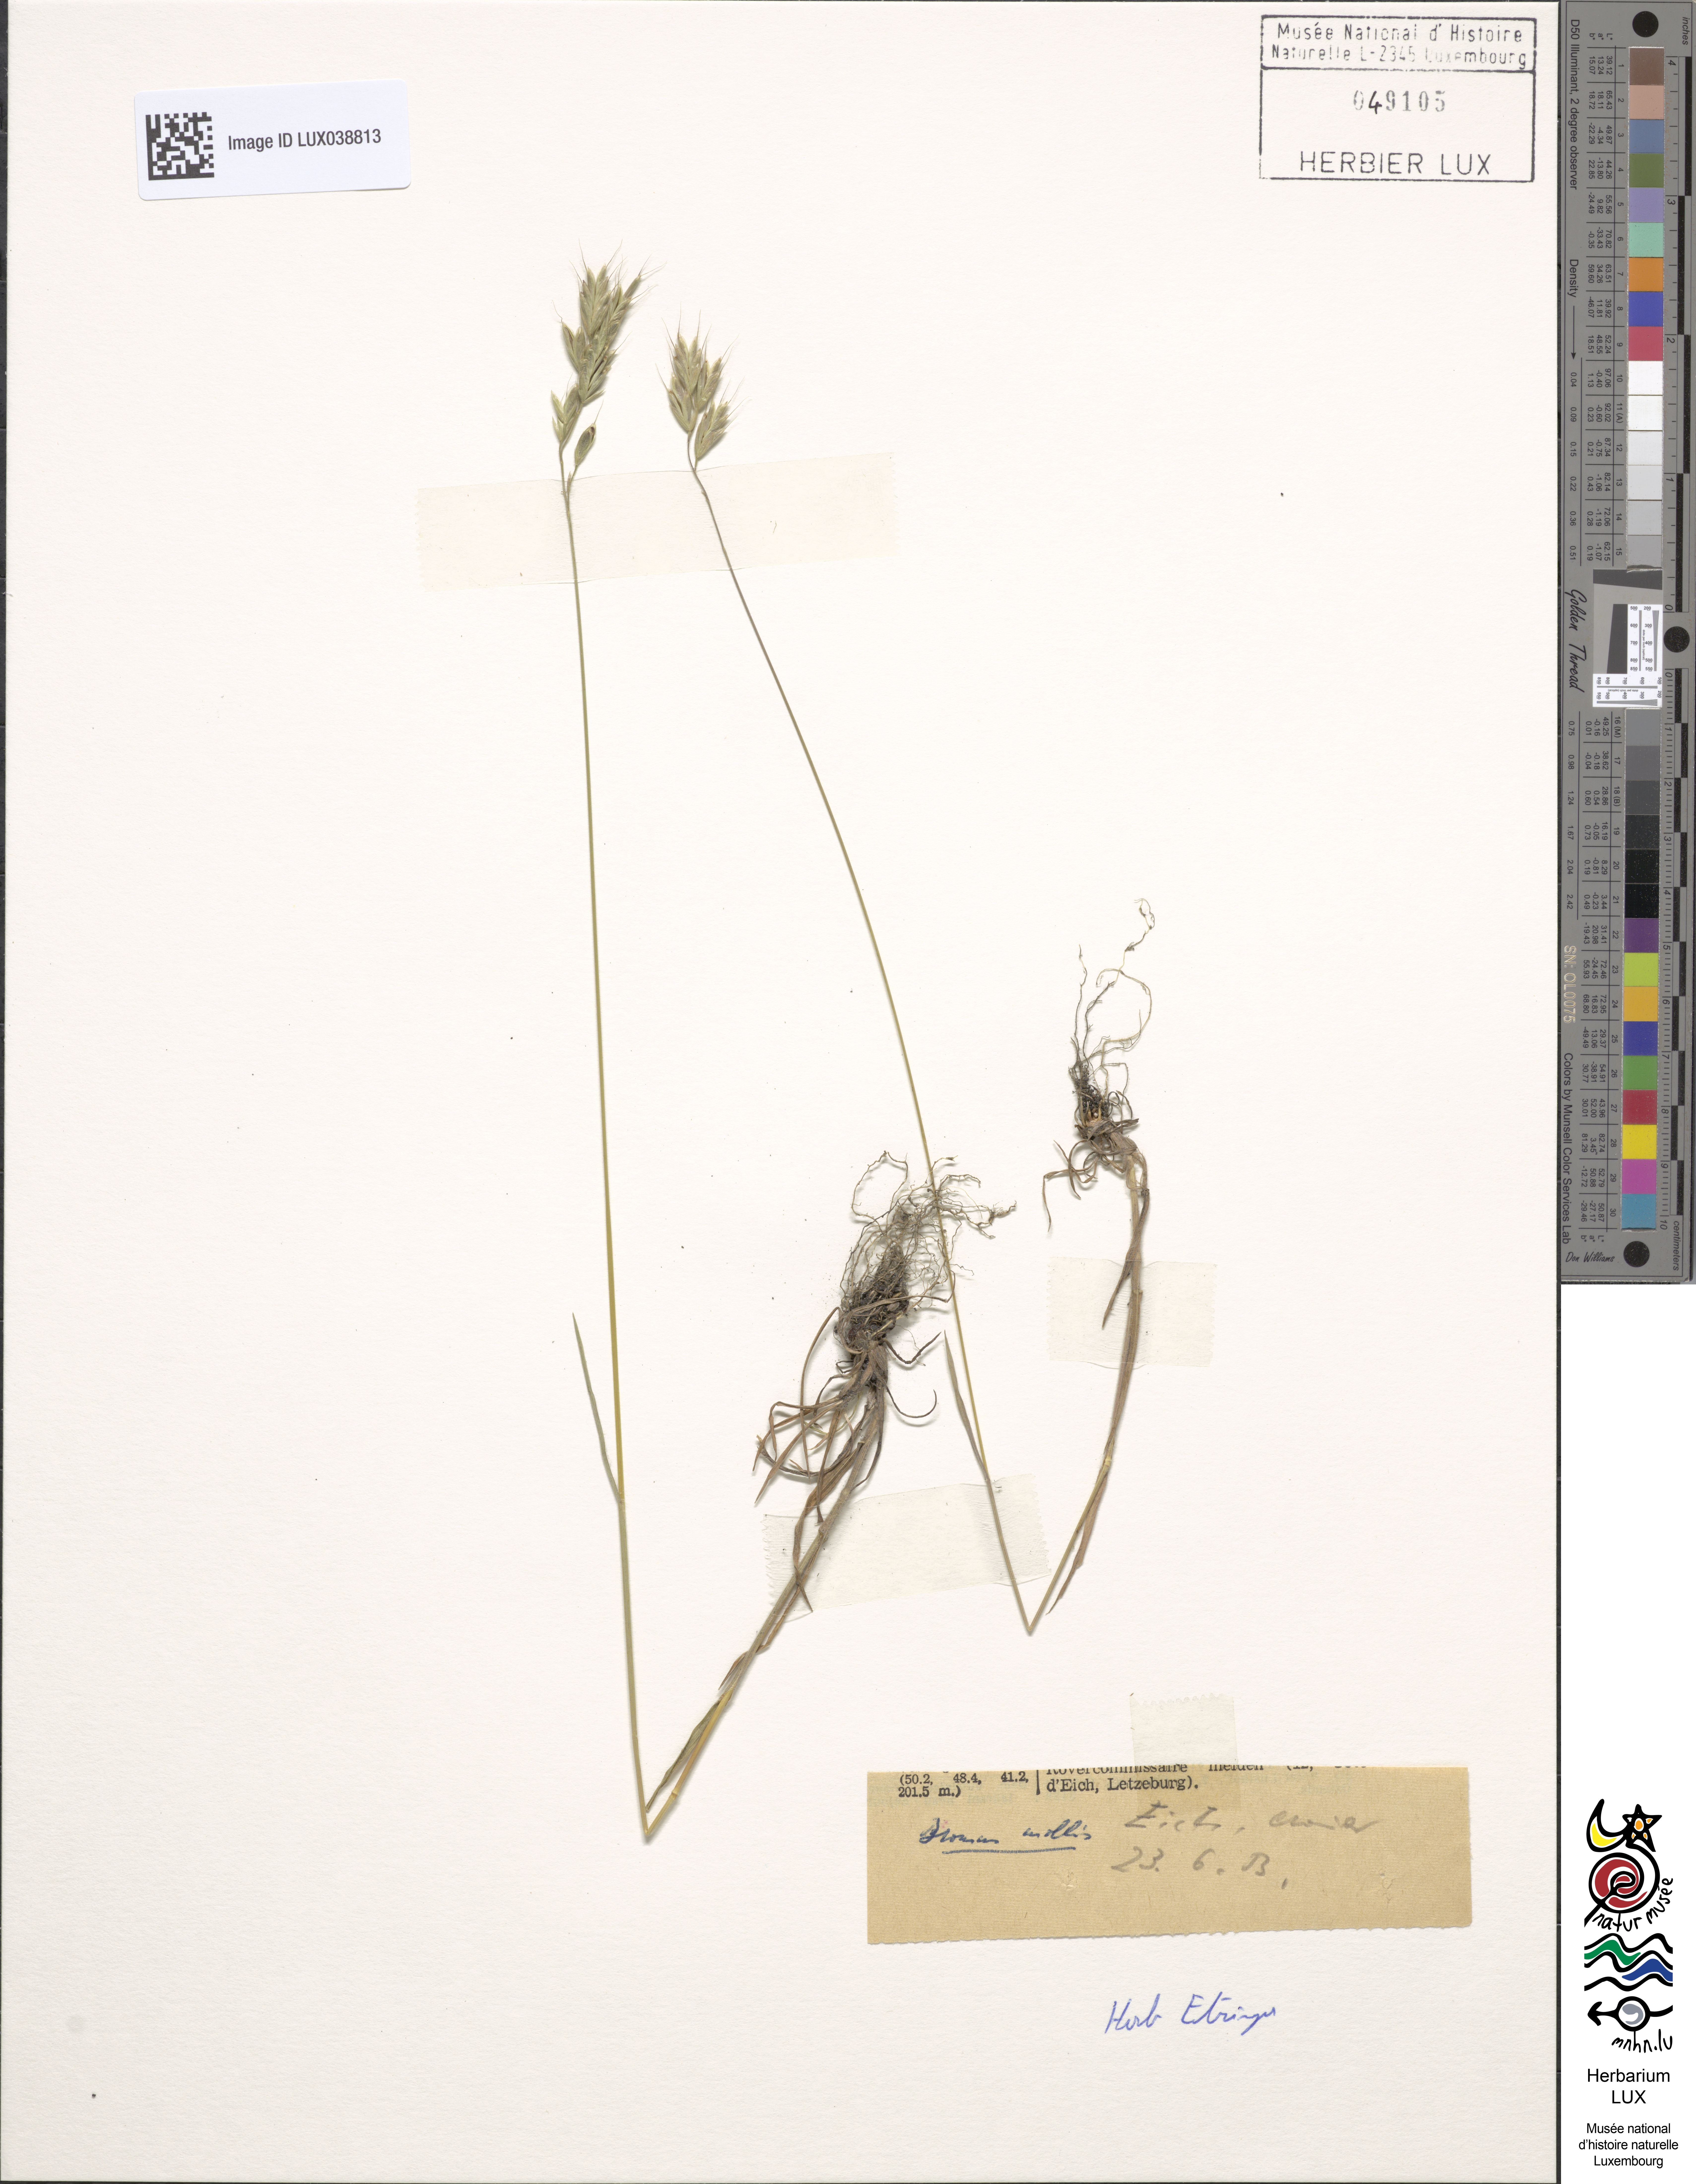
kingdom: Plantae
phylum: Tracheophyta
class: Liliopsida
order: Poales
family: Poaceae
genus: Bromus
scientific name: Bromus hordeaceus
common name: Soft brome
